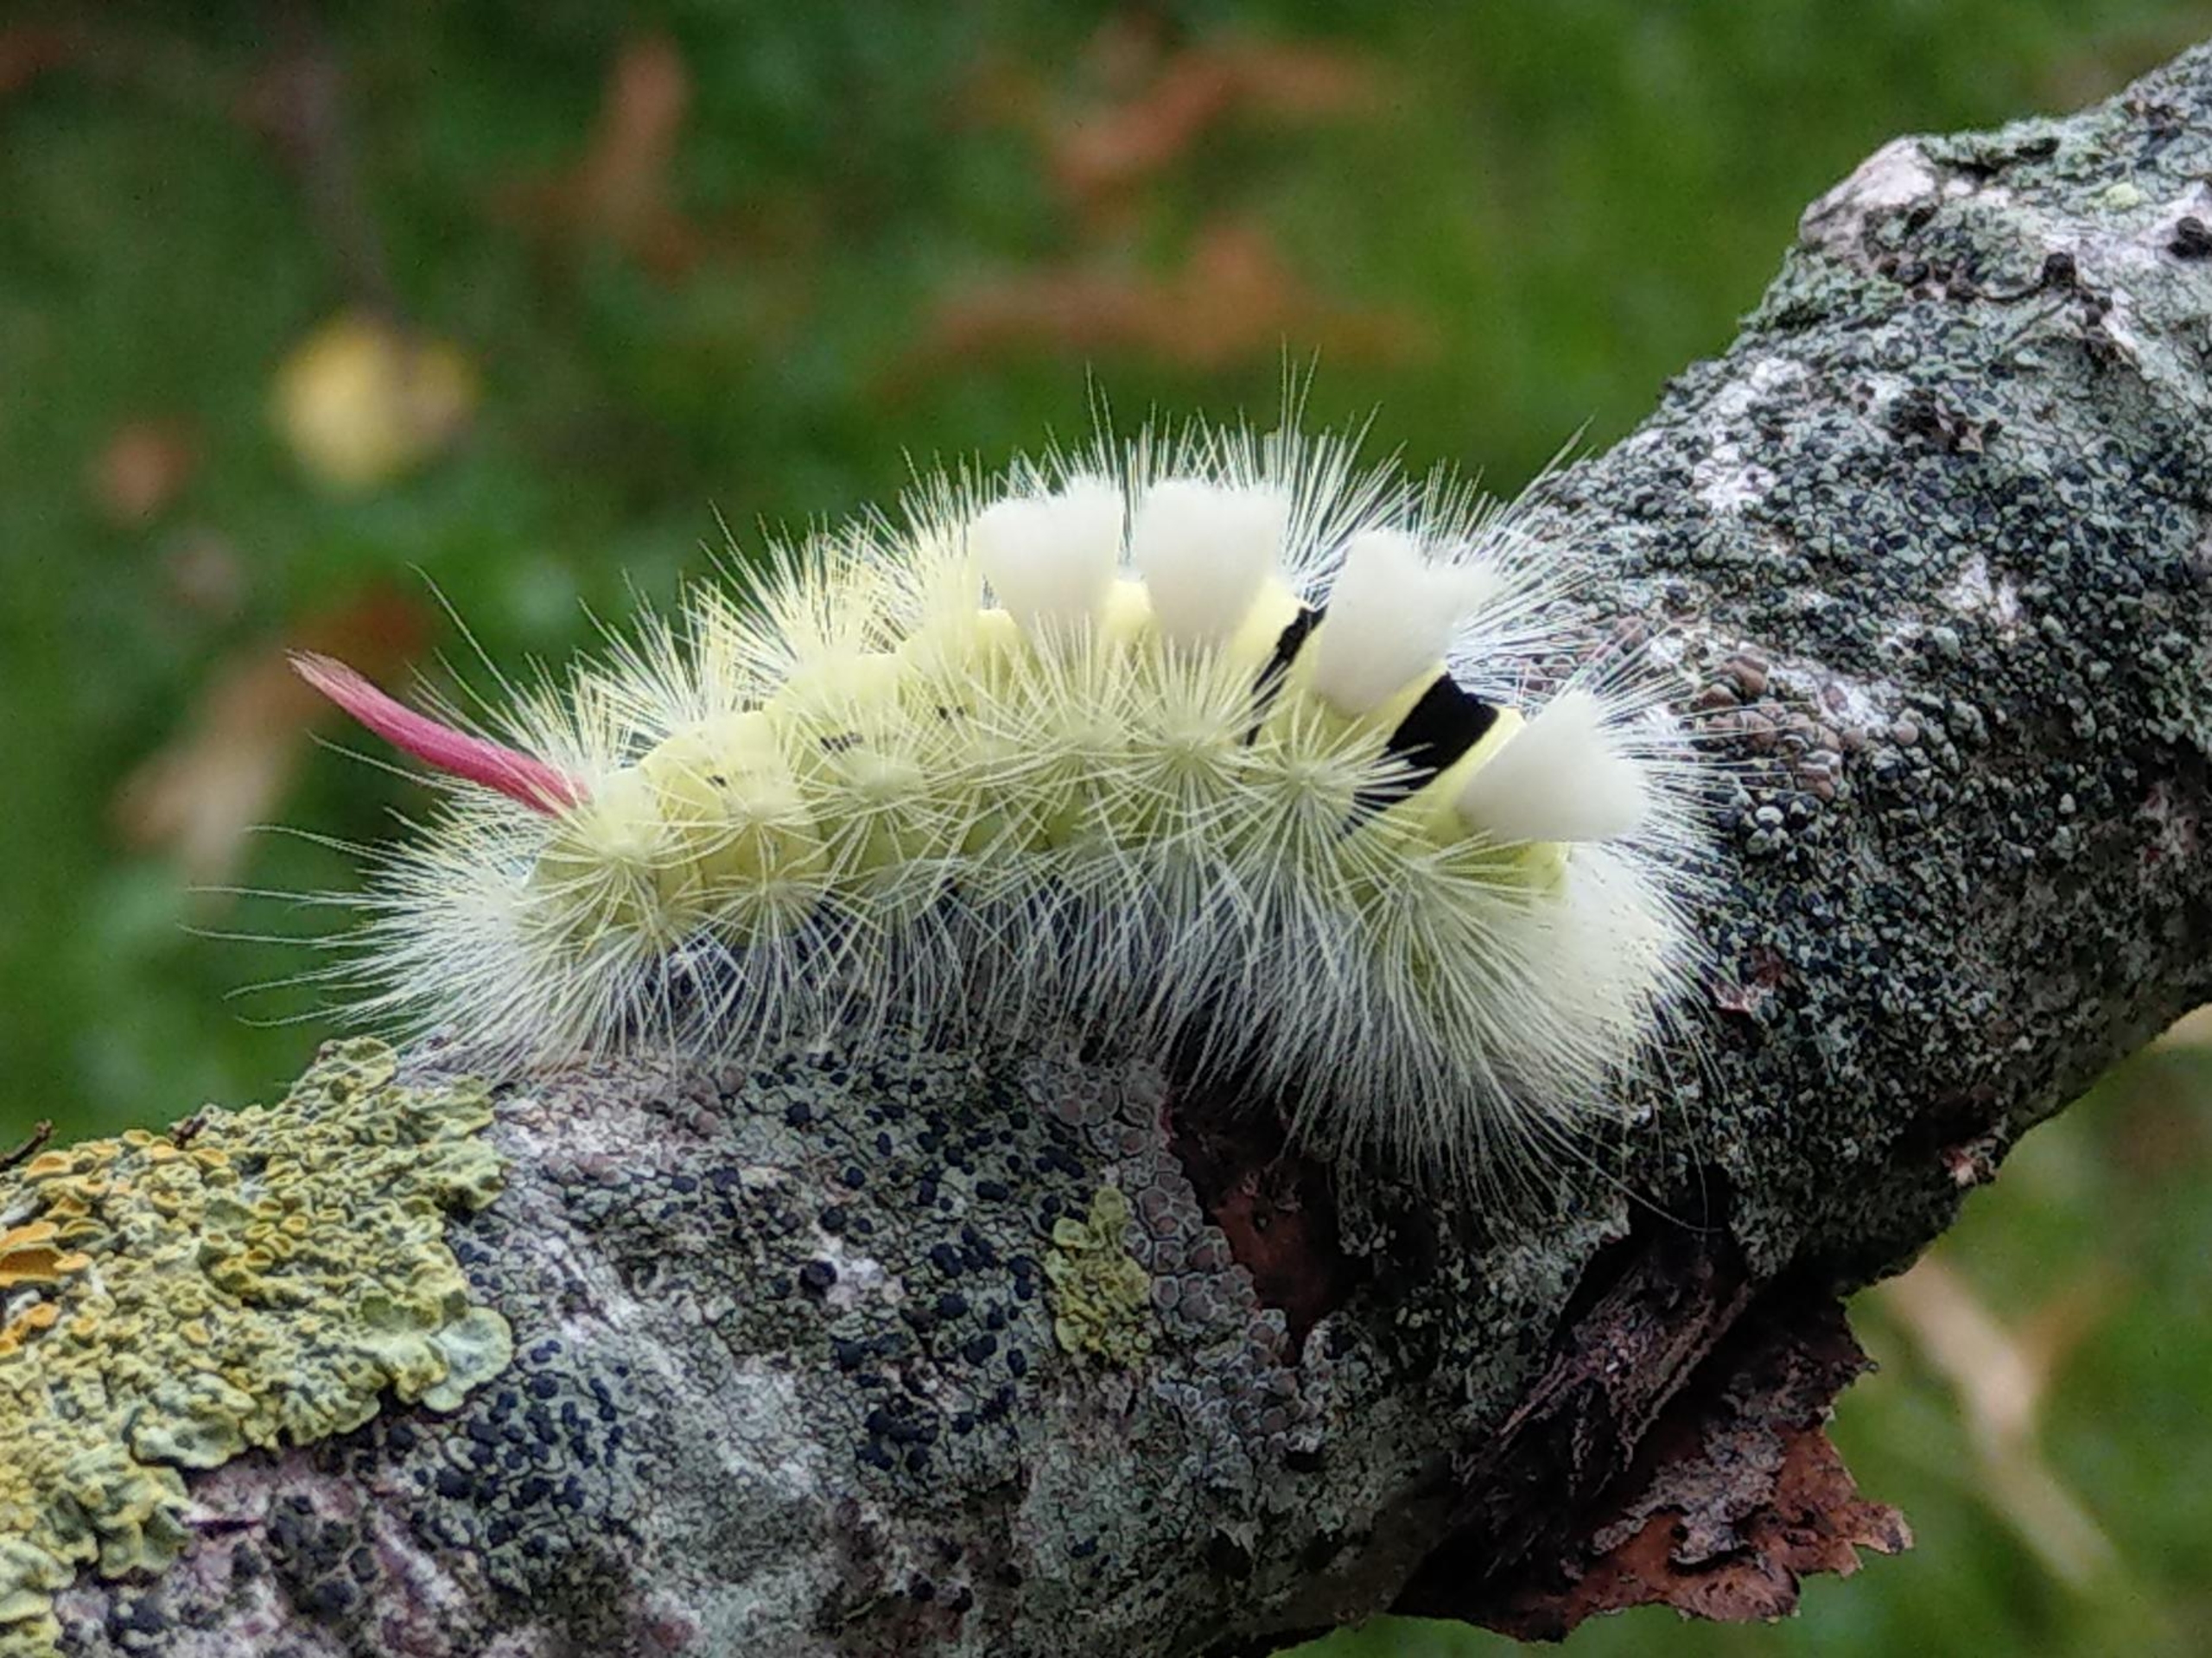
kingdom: Animalia
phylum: Arthropoda
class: Insecta
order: Lepidoptera
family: Erebidae
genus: Calliteara
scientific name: Calliteara pudibunda
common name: Bøgenonne
